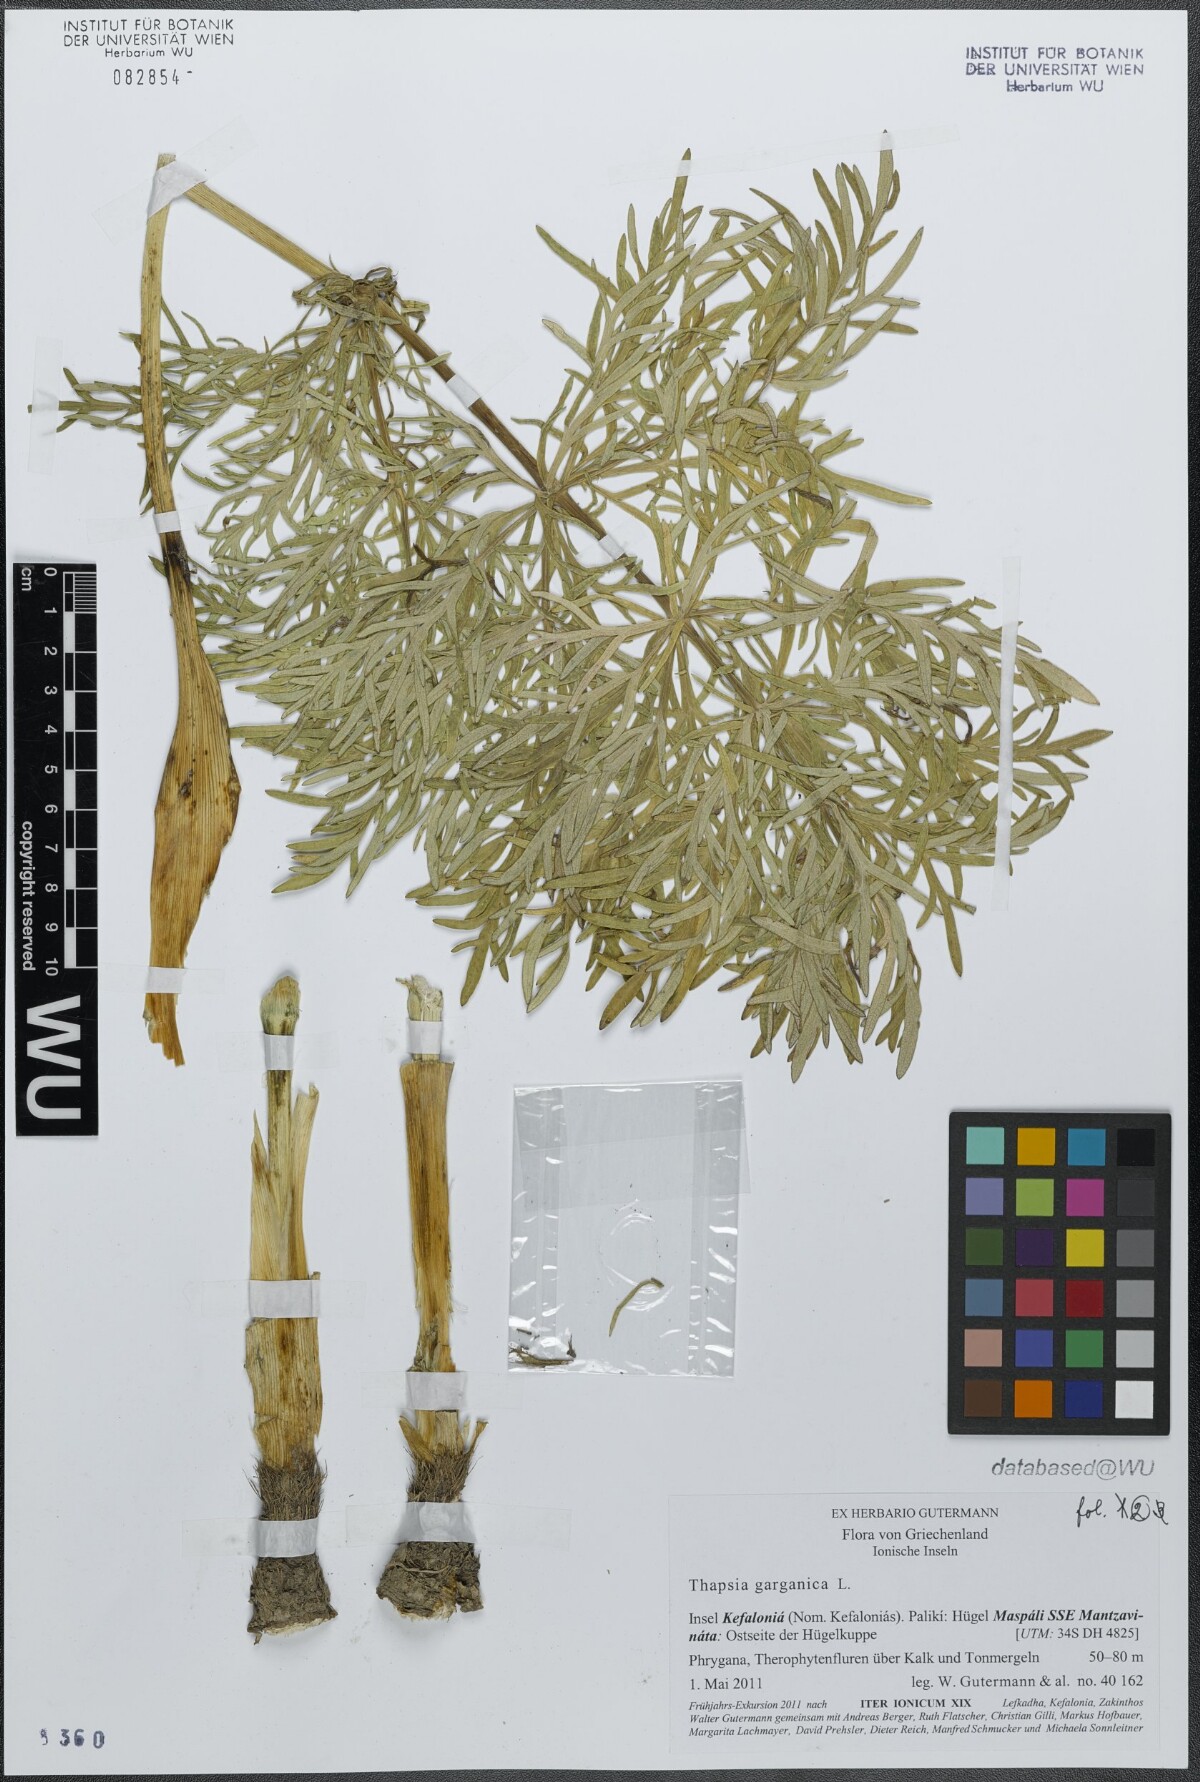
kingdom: Plantae
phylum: Tracheophyta
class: Magnoliopsida
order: Apiales
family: Apiaceae
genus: Thapsia
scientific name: Thapsia garganica
